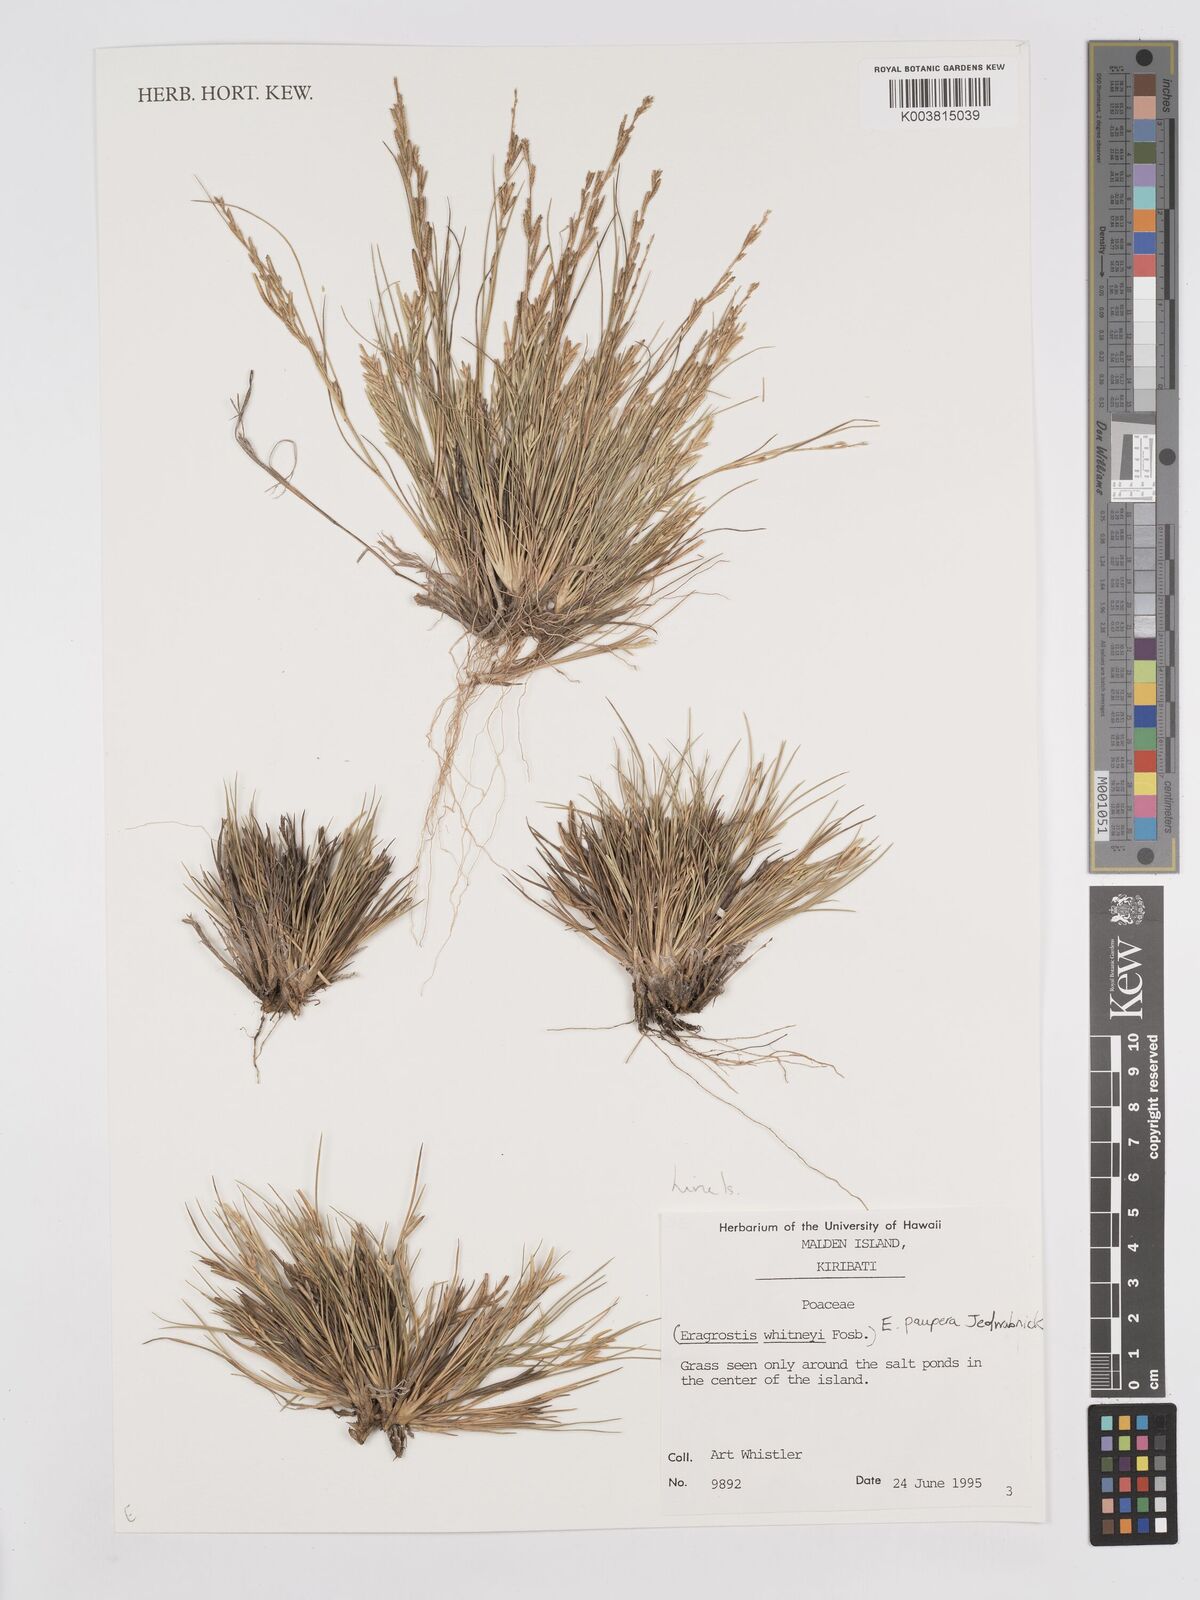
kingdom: Plantae
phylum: Tracheophyta
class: Liliopsida
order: Poales
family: Poaceae
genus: Eragrostis
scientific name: Eragrostis paupera
